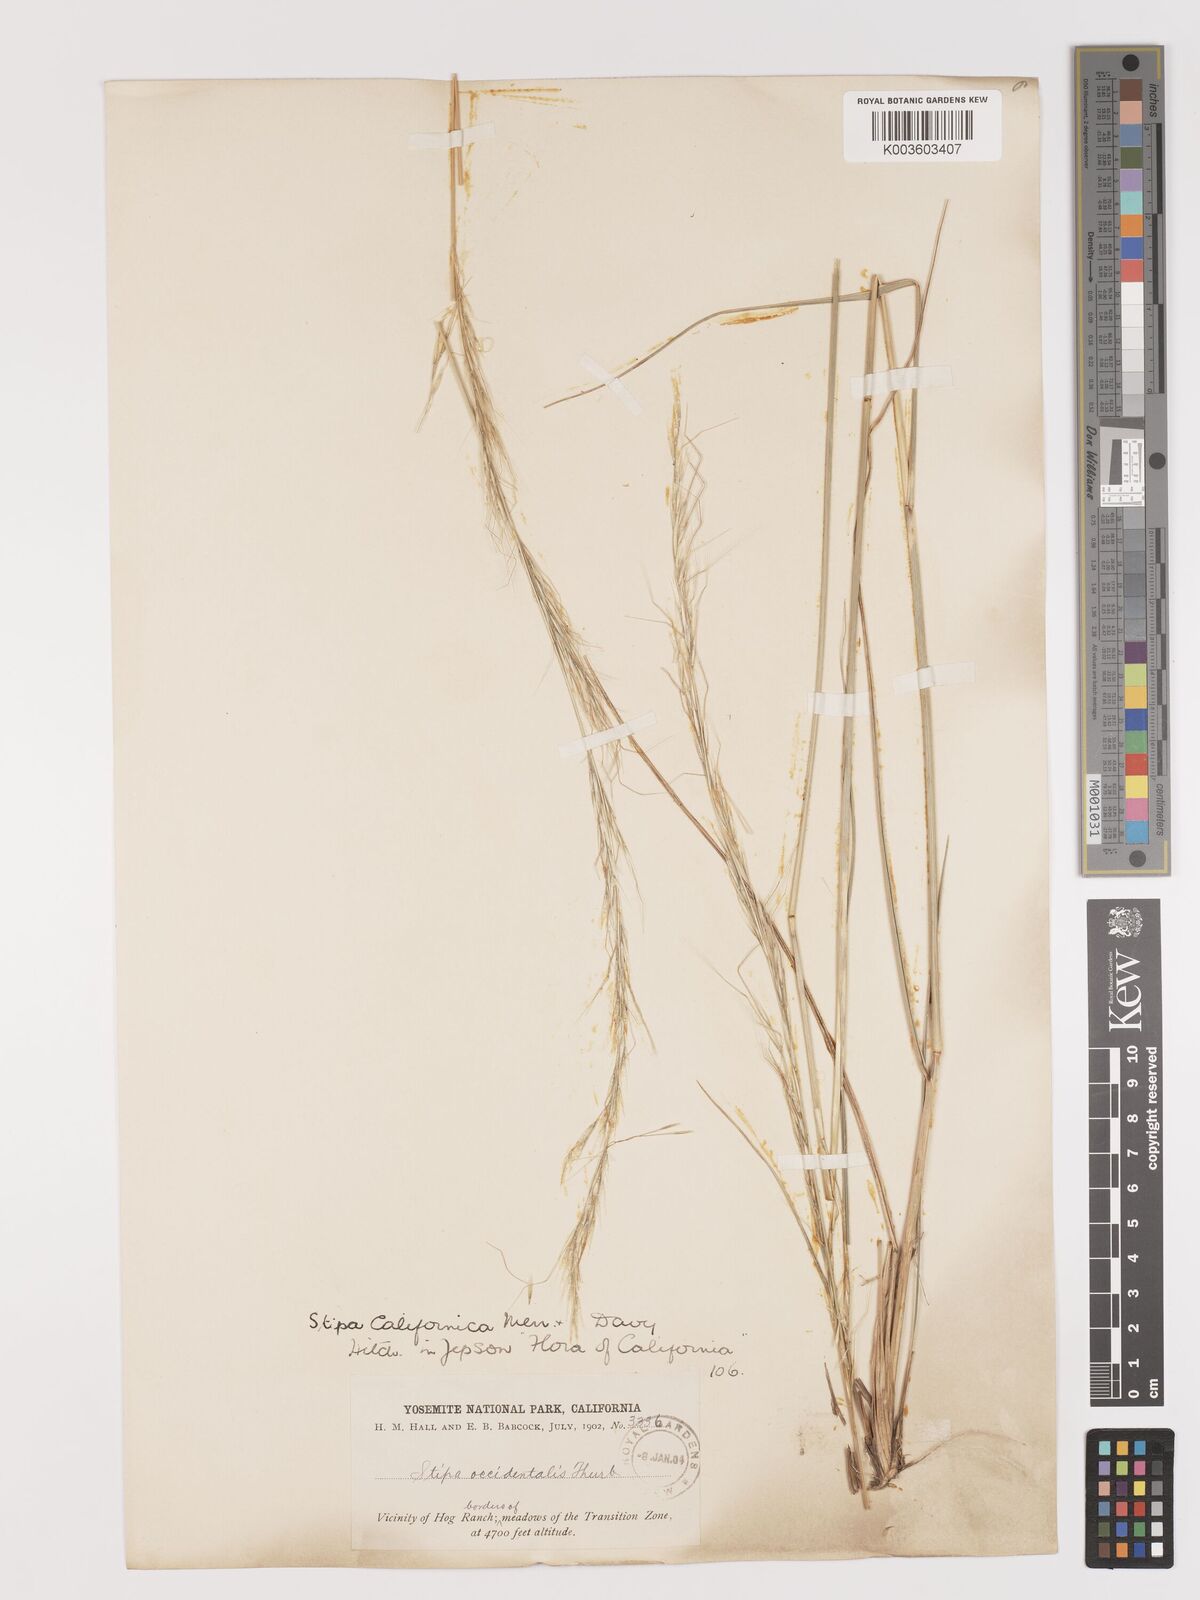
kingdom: Plantae
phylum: Tracheophyta
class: Liliopsida
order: Poales
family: Poaceae
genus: Eriocoma
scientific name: Eriocoma thurberiana
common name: Thurber's needlegrass
